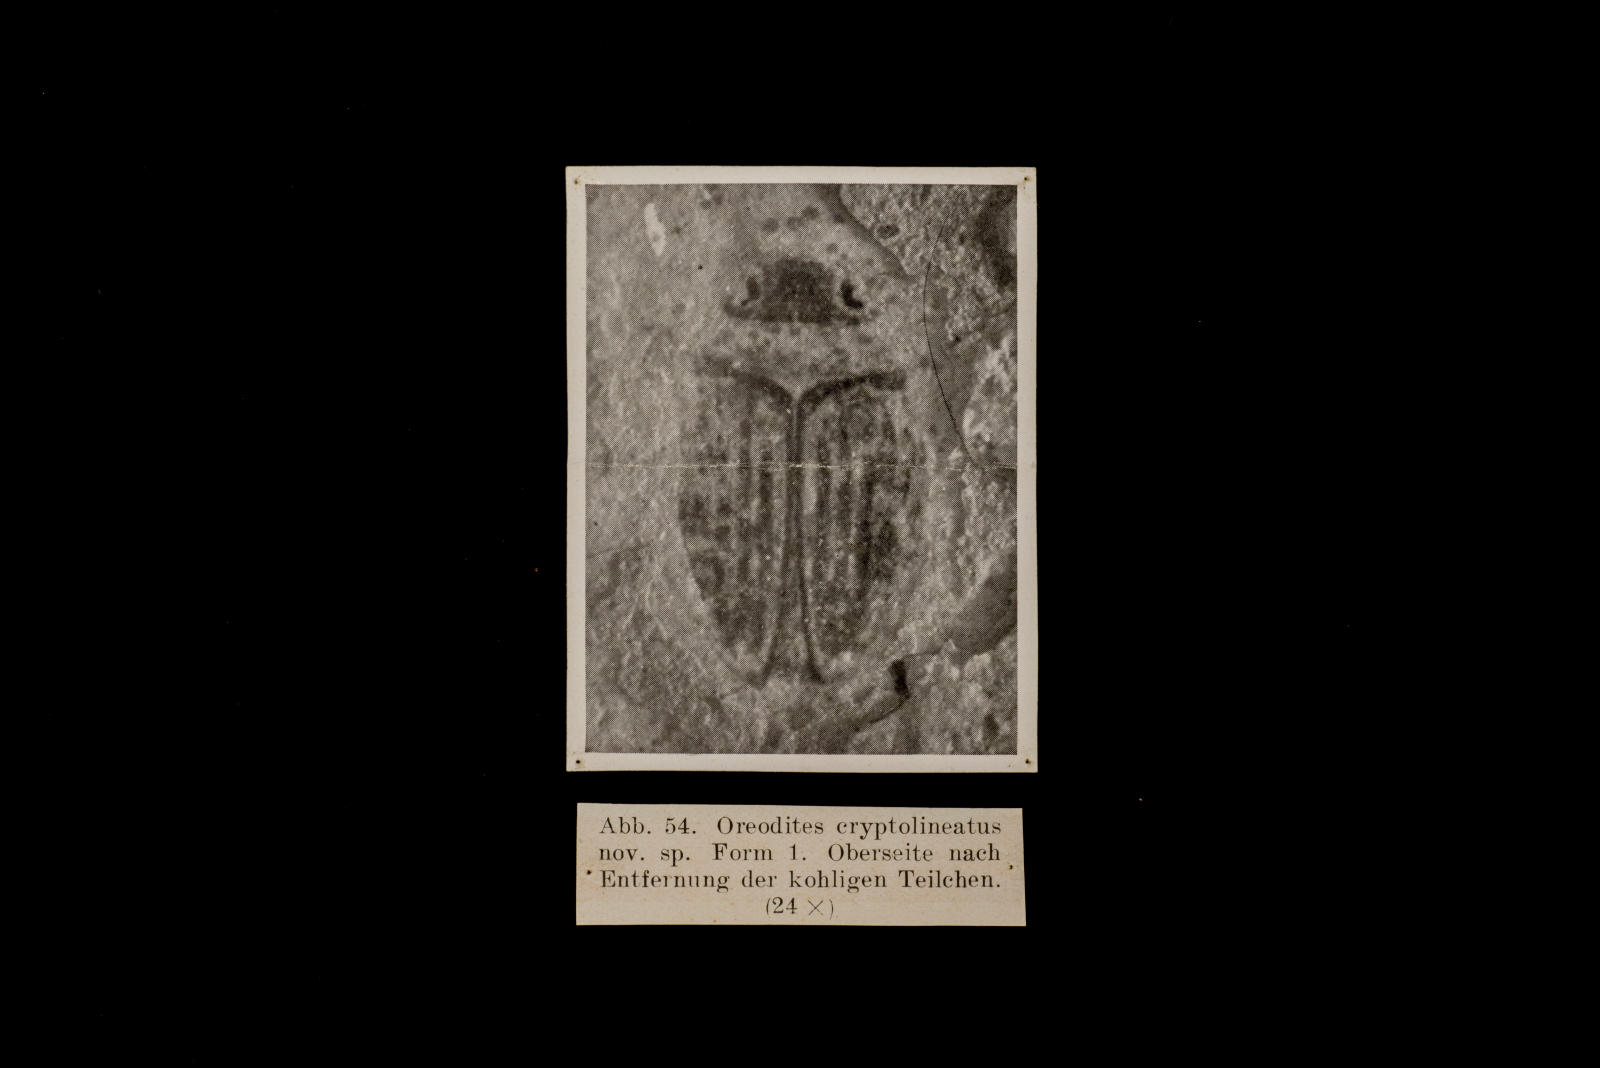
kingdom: Animalia
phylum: Arthropoda
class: Insecta
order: Coleoptera
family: Dytiscidae
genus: Oreodytes
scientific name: Oreodytes cryptolineatus
